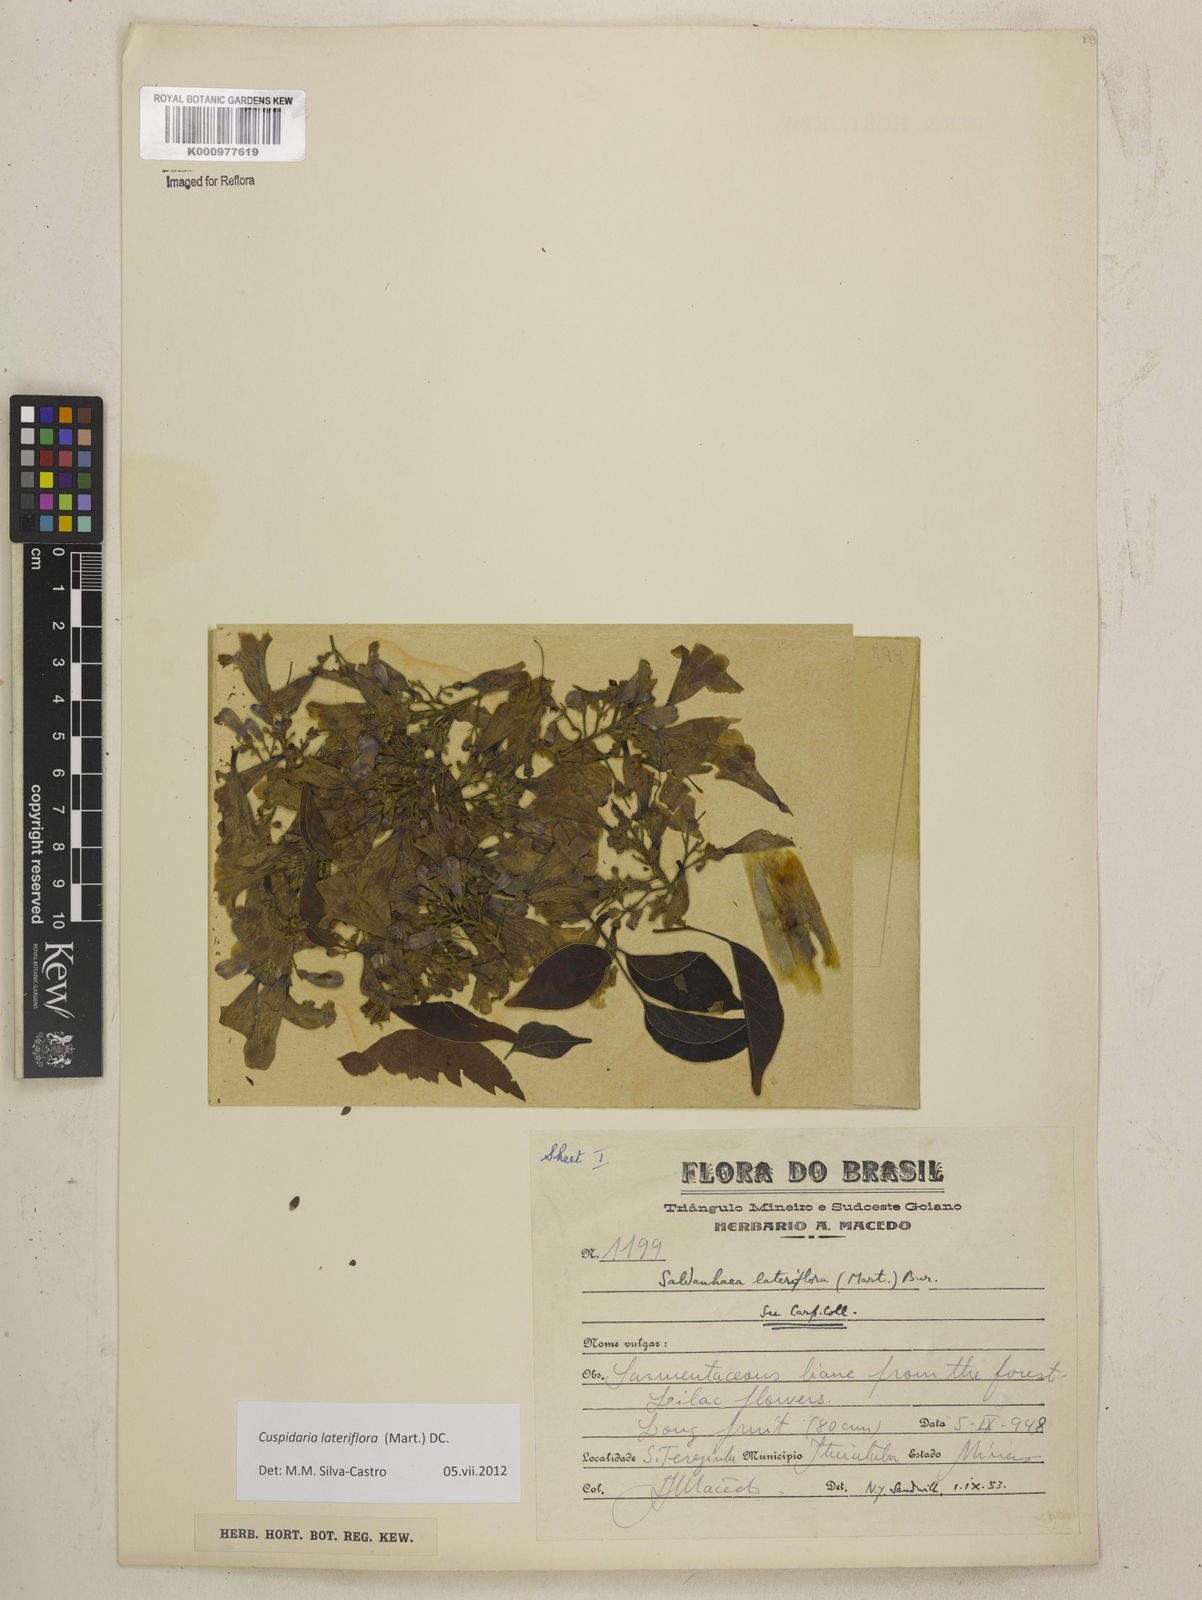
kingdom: Plantae
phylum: Tracheophyta
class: Magnoliopsida
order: Lamiales
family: Bignoniaceae
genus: Cuspidaria
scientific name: Cuspidaria lateriflora
